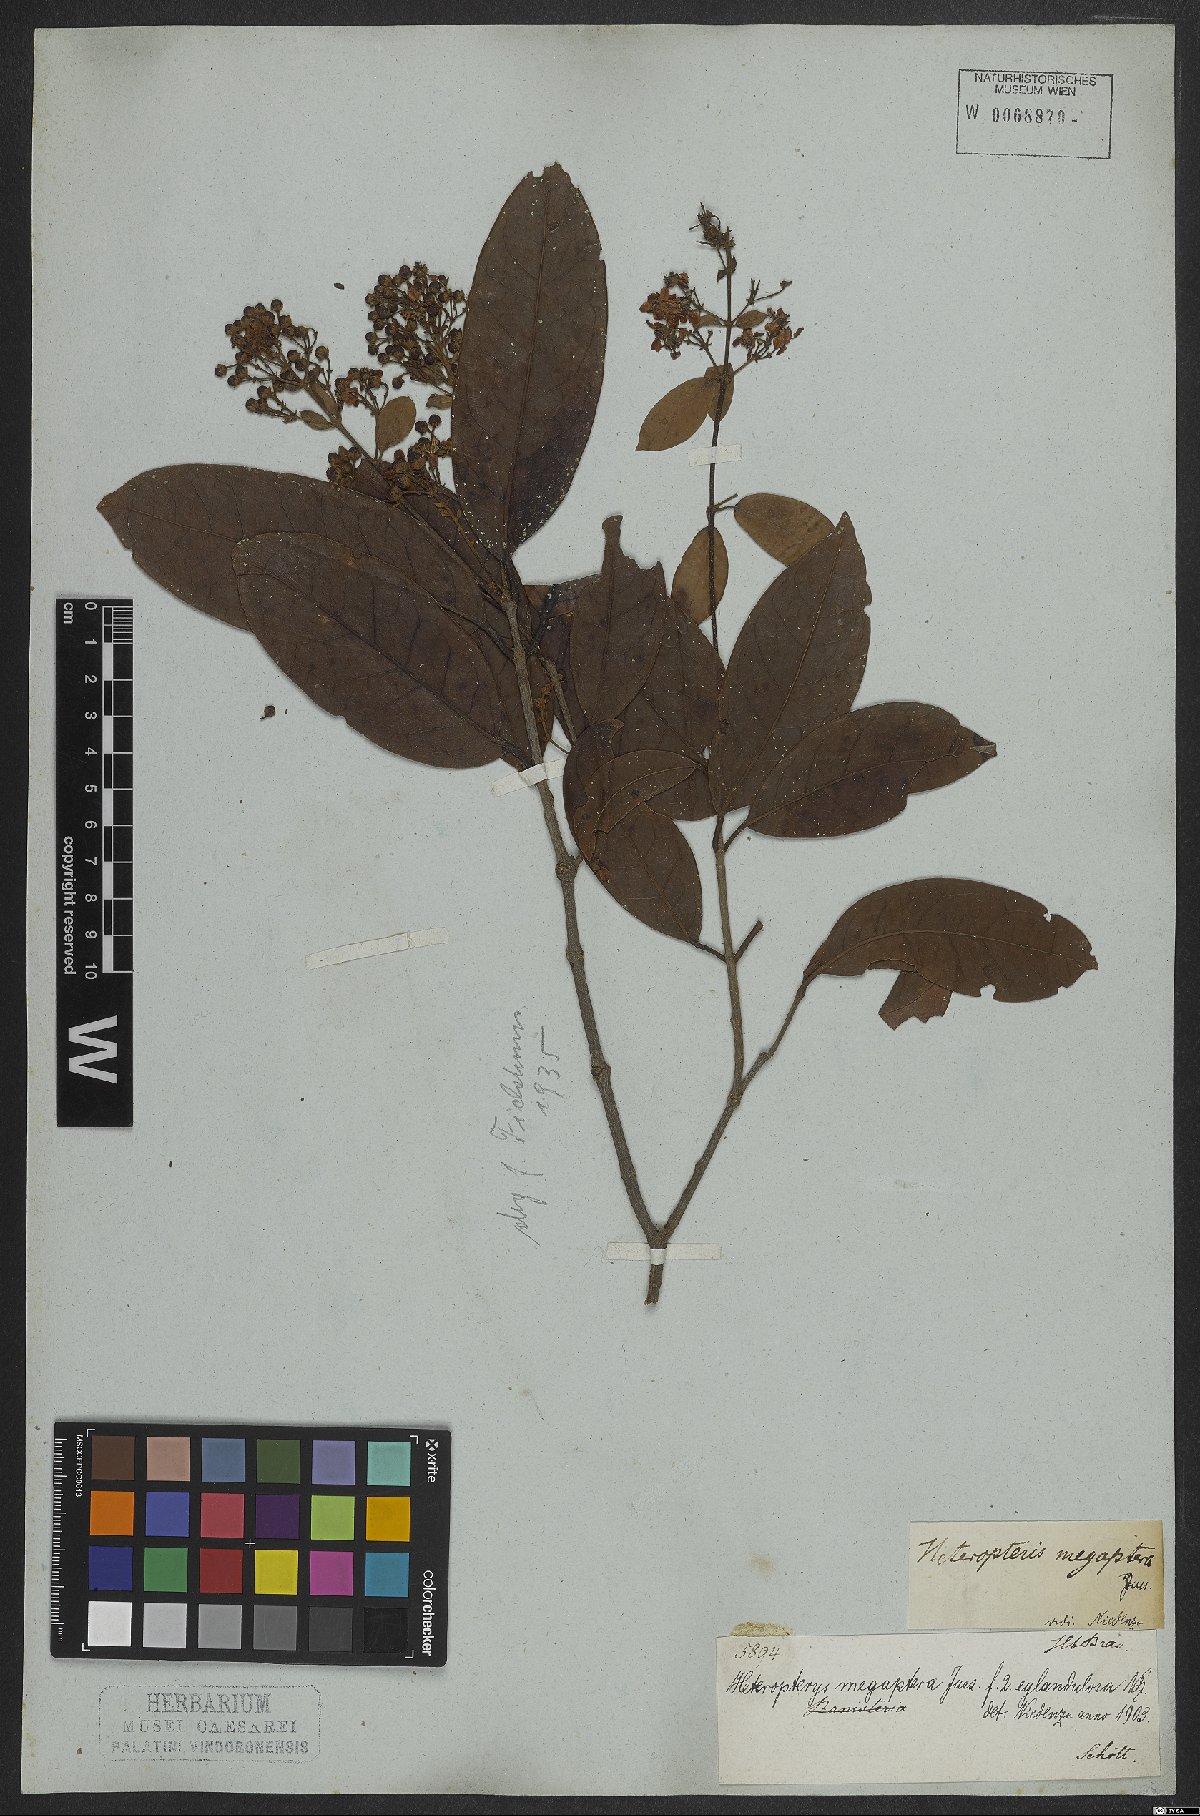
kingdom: Plantae
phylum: Tracheophyta
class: Magnoliopsida
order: Malpighiales
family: Malpighiaceae
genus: Heteropterys
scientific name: Heteropterys megaptera
